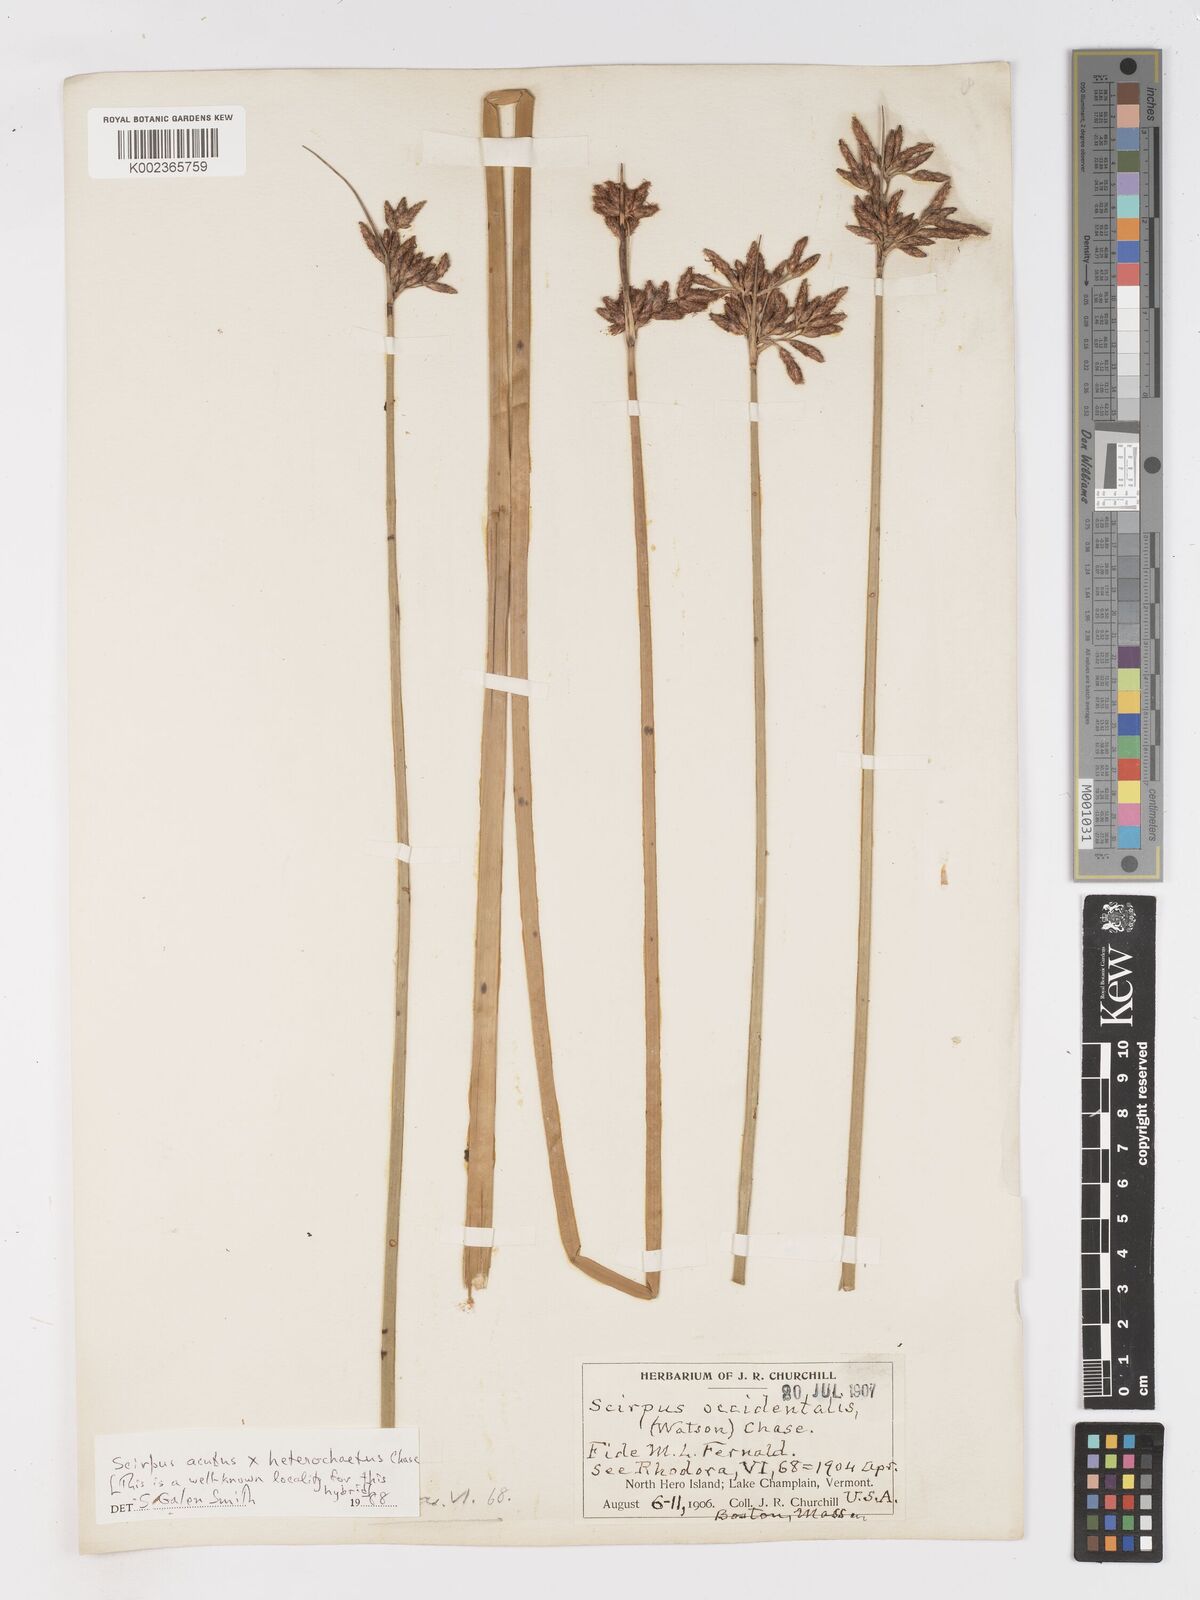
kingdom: Plantae
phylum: Tracheophyta
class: Liliopsida
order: Poales
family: Cyperaceae
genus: Schoenoplectus
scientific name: Schoenoplectus
